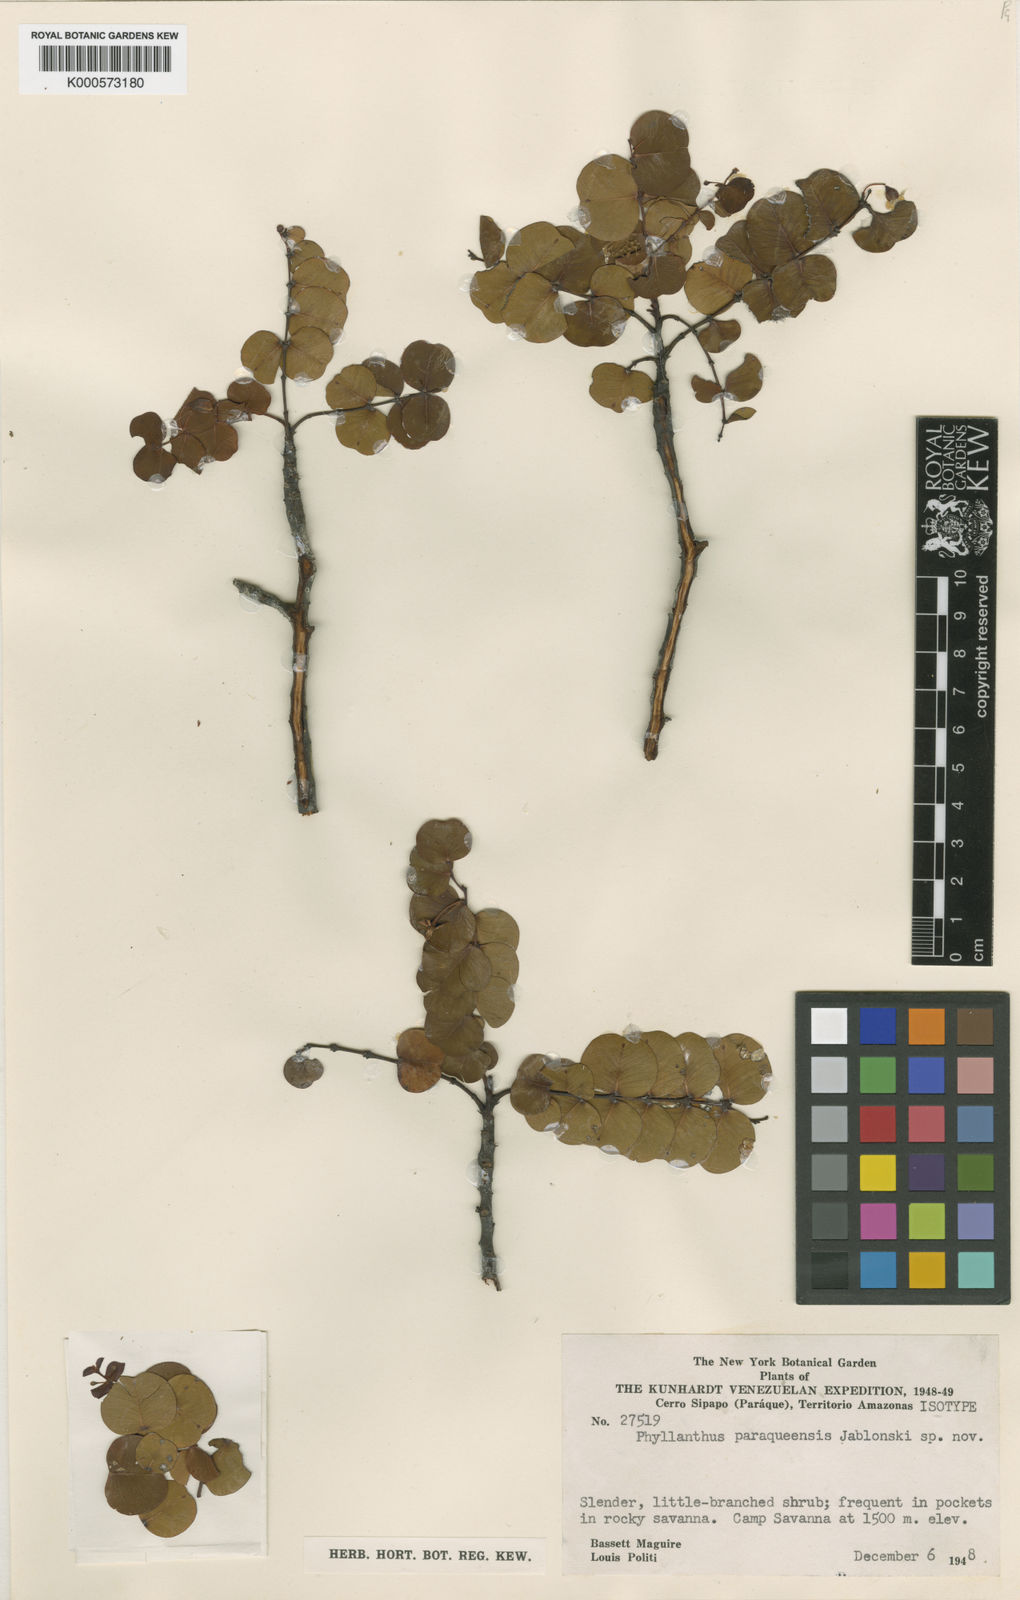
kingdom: Plantae
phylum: Tracheophyta
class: Magnoliopsida
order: Malpighiales
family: Phyllanthaceae
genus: Phyllanthus
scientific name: Phyllanthus paraqueensis
